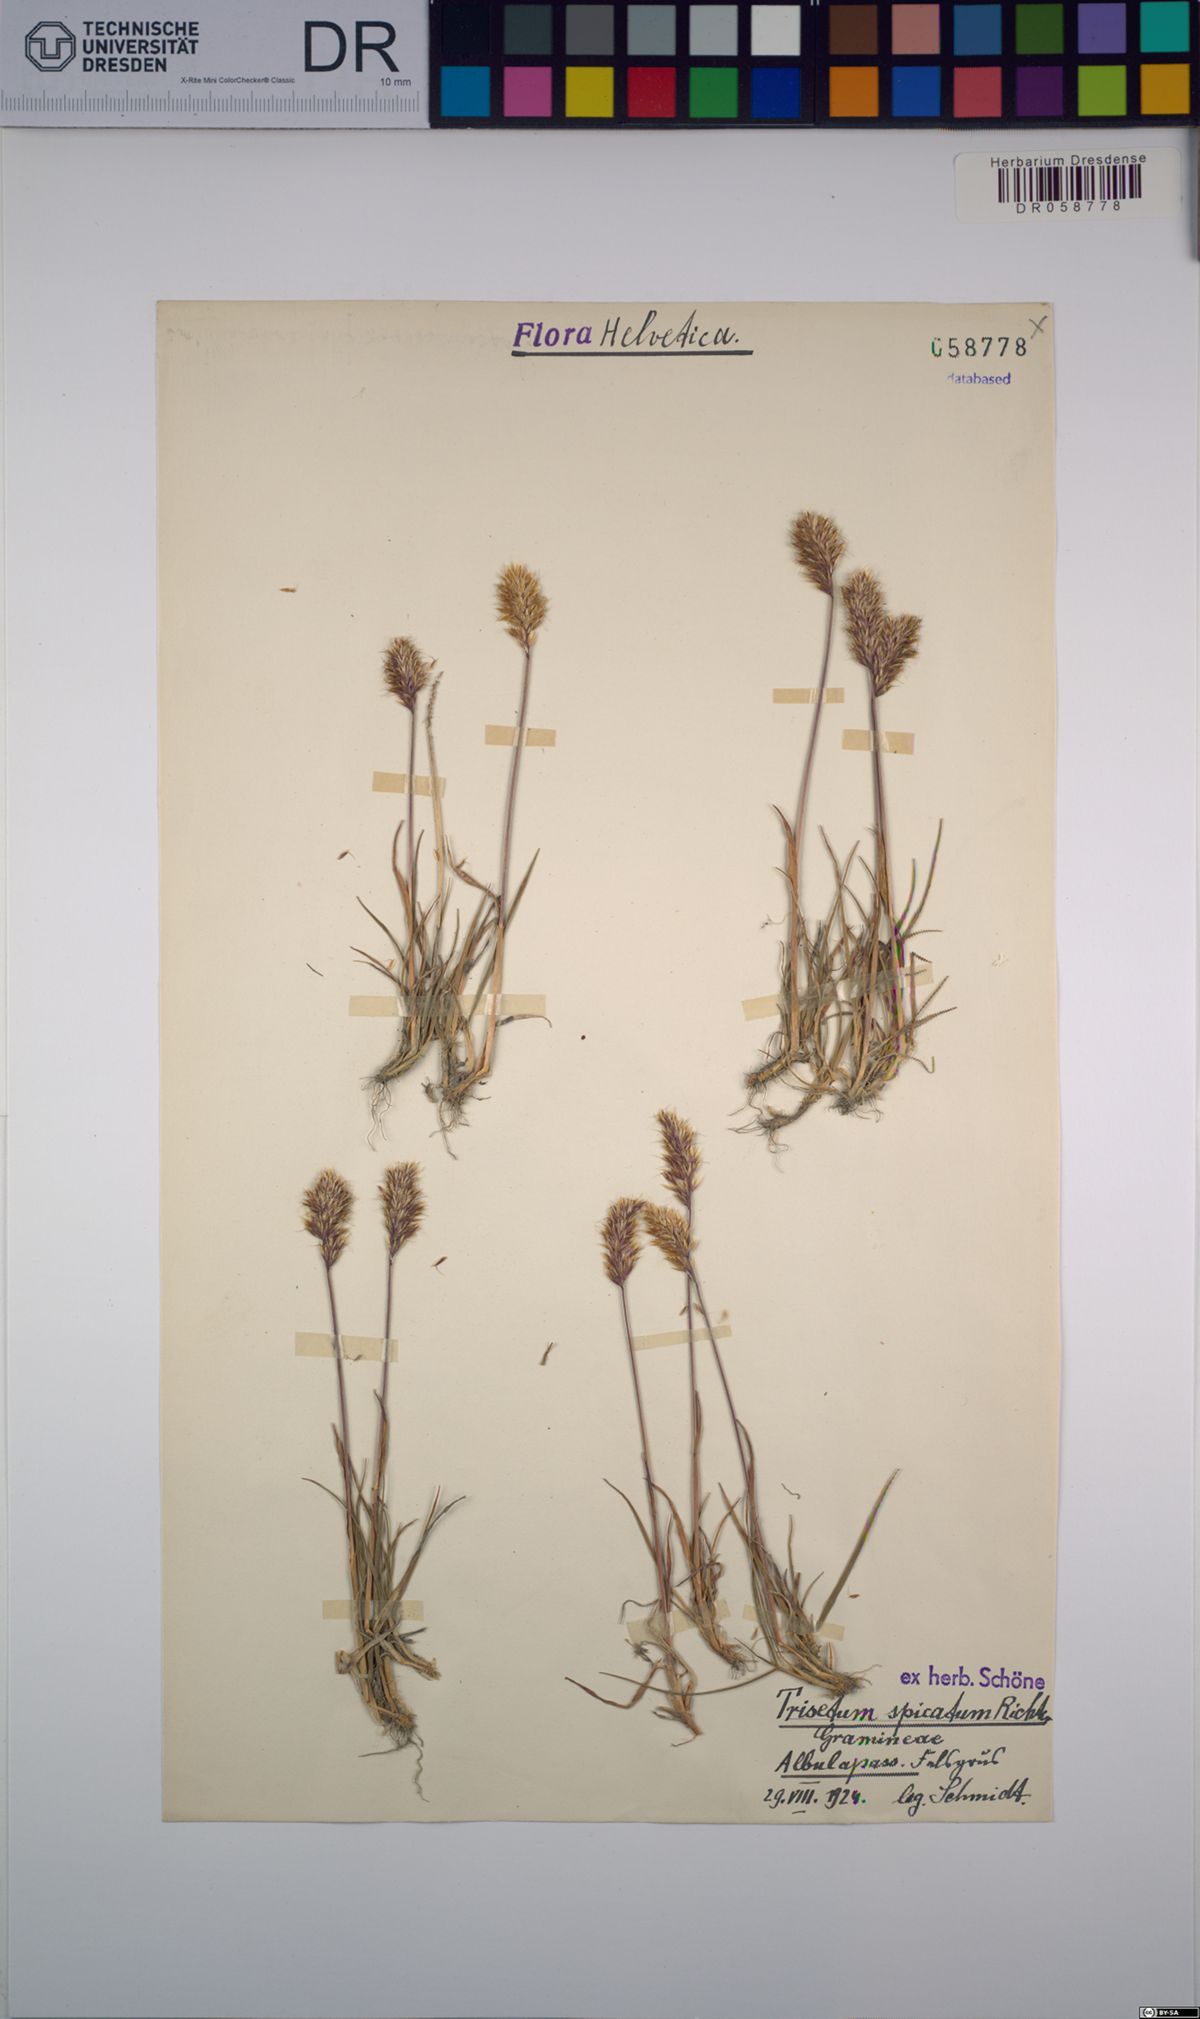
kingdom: Plantae
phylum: Tracheophyta
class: Liliopsida
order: Poales
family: Poaceae
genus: Koeleria
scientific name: Koeleria spicata
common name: Mountain trisetum
